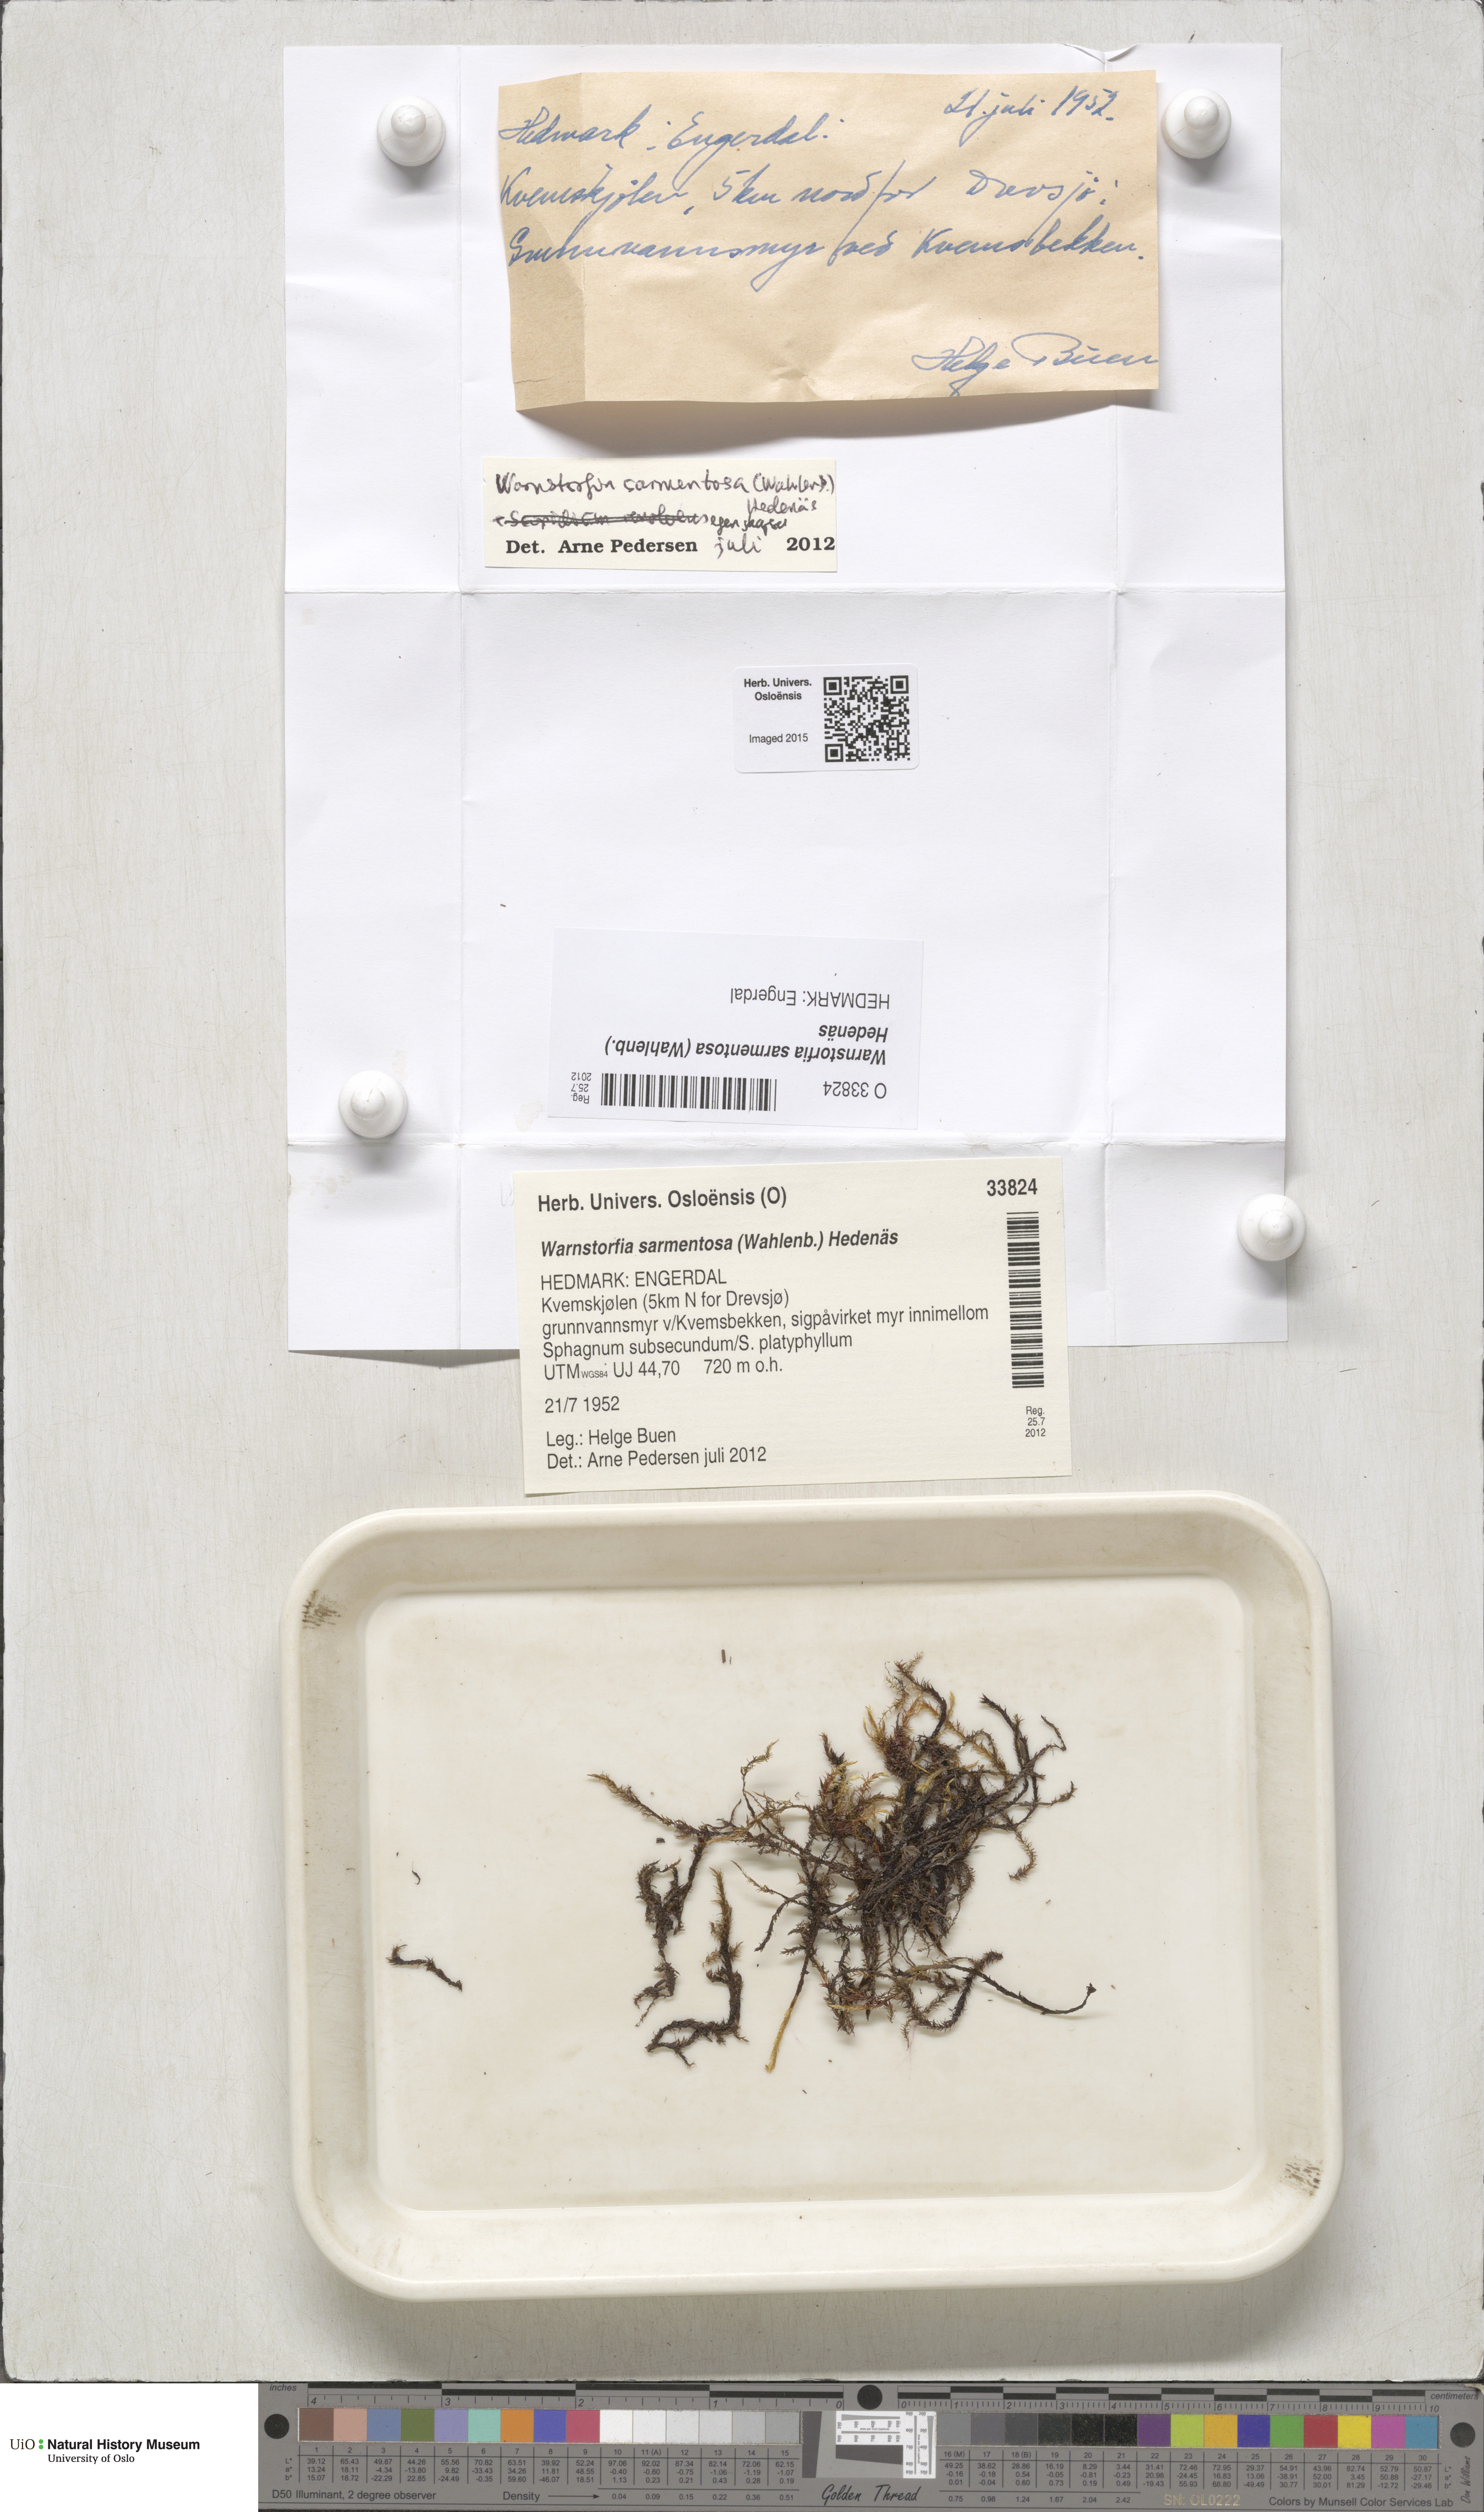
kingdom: Plantae
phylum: Bryophyta
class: Bryopsida
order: Hypnales
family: Calliergonaceae
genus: Sarmentypnum
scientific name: Sarmentypnum sarmentosum
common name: Twiggy spoon moss
